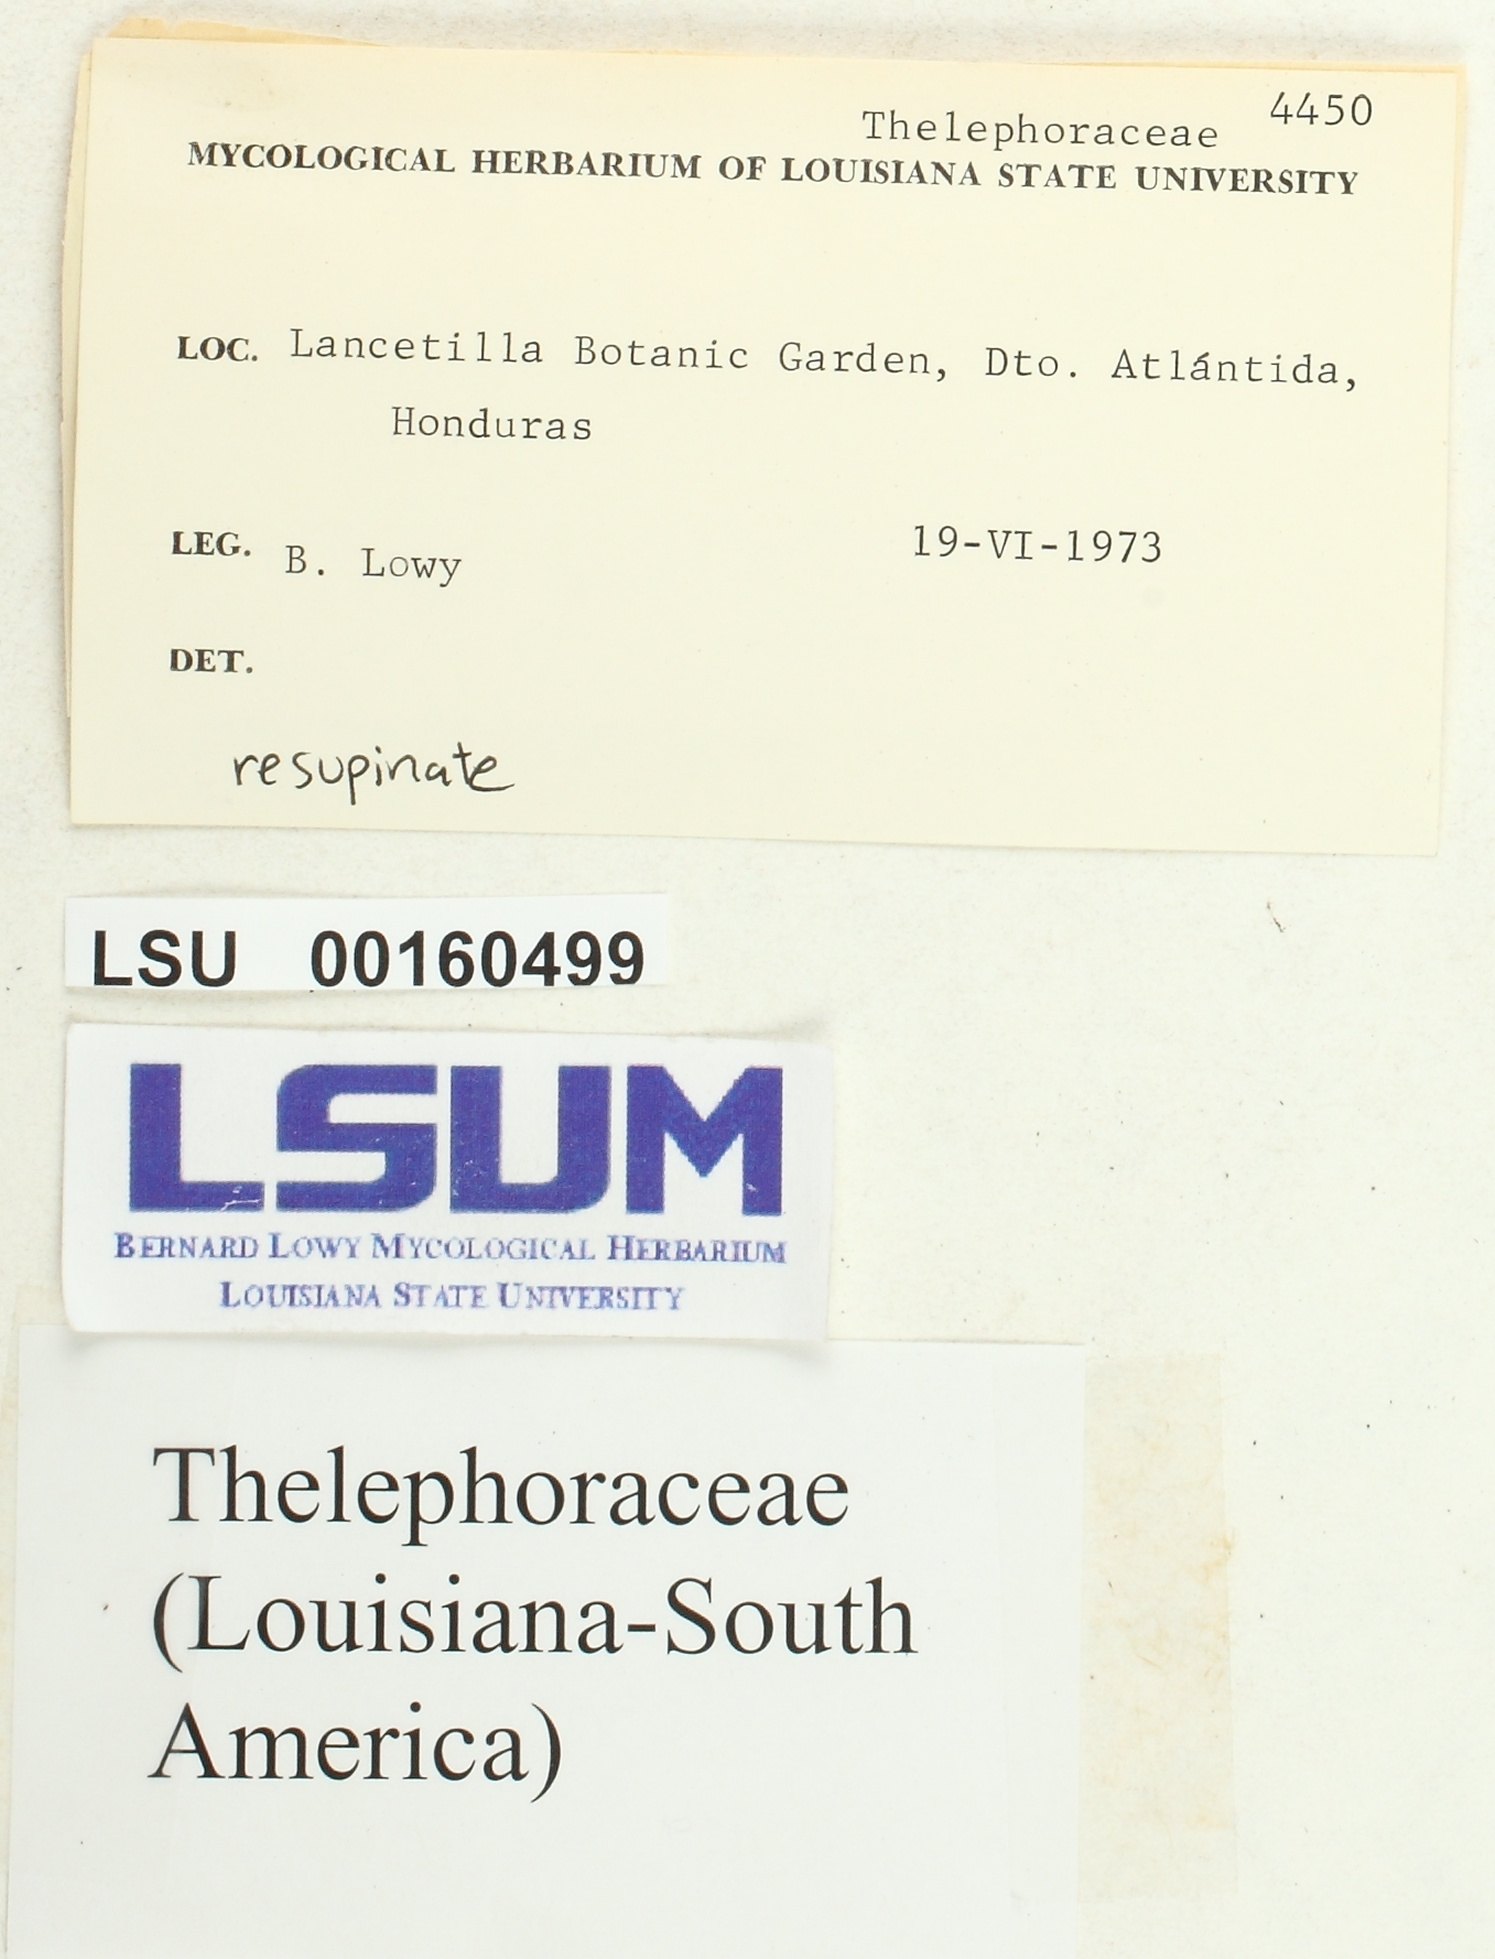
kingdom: Fungi
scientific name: Fungi
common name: Fungi
